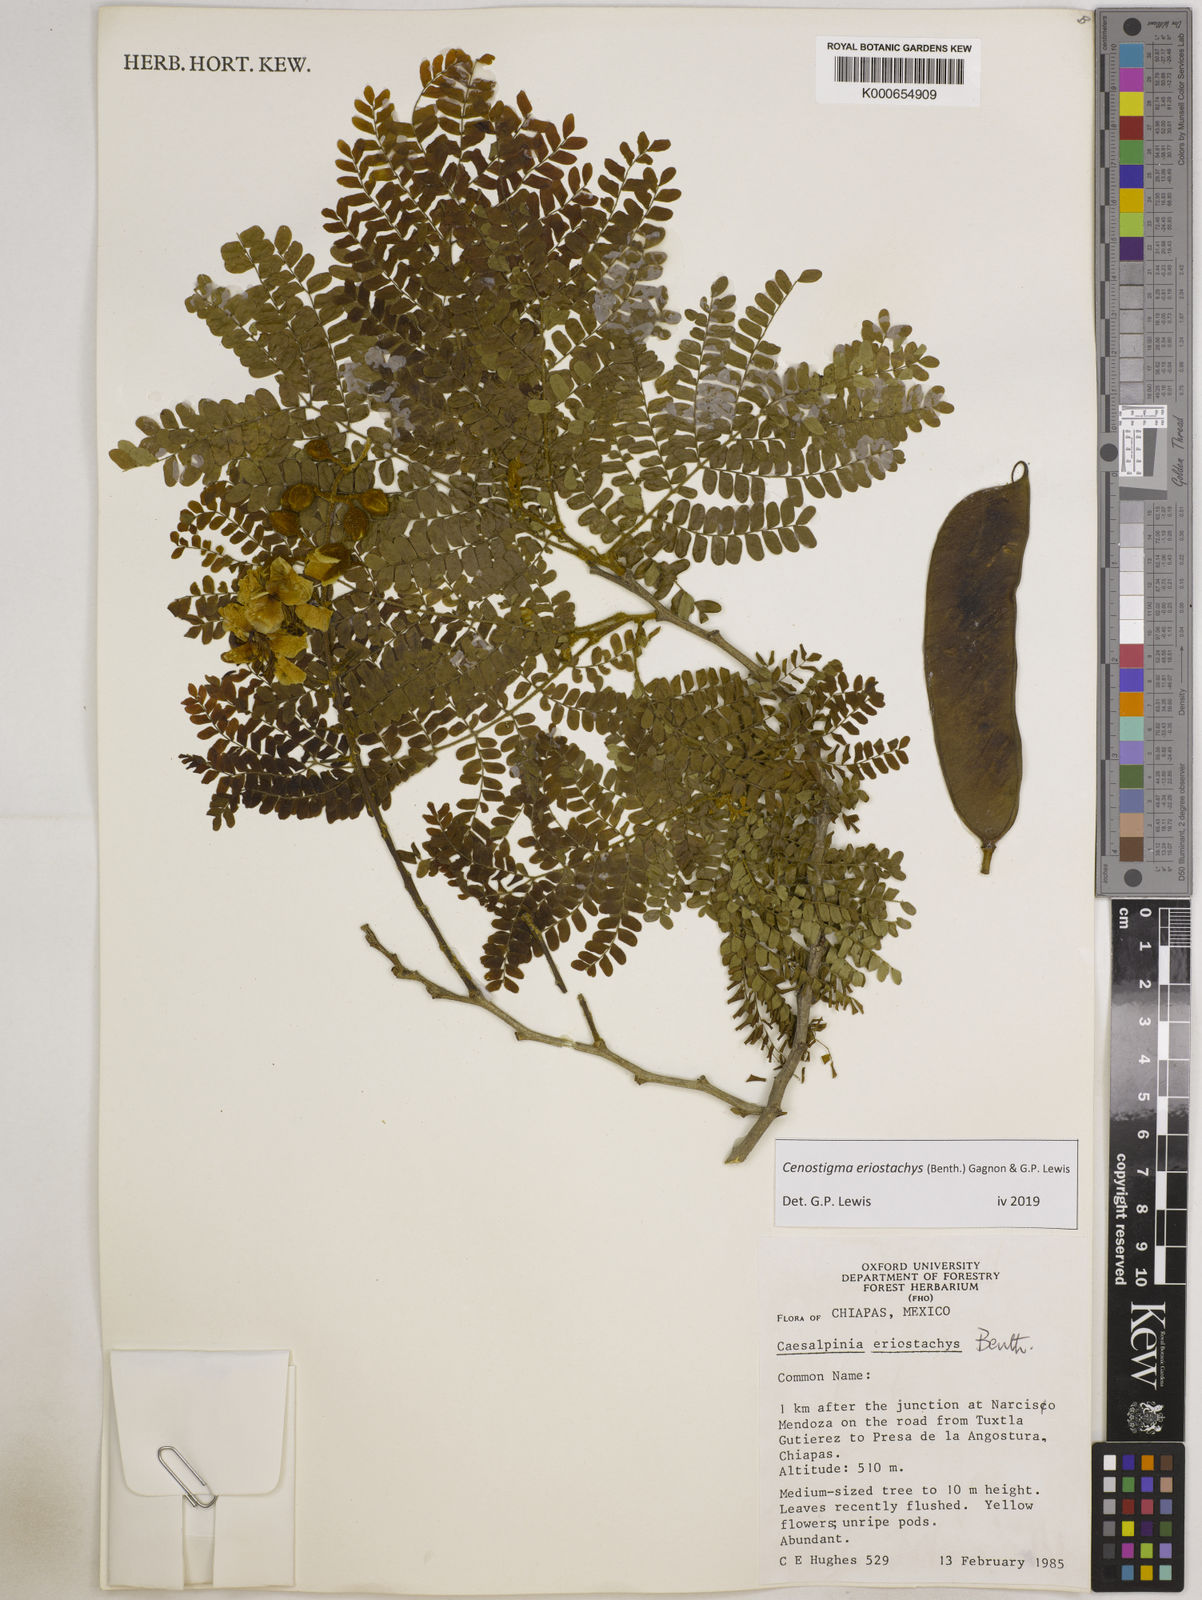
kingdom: Plantae
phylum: Tracheophyta
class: Magnoliopsida
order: Fabales
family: Fabaceae
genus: Cenostigma
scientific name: Cenostigma eriostachys
